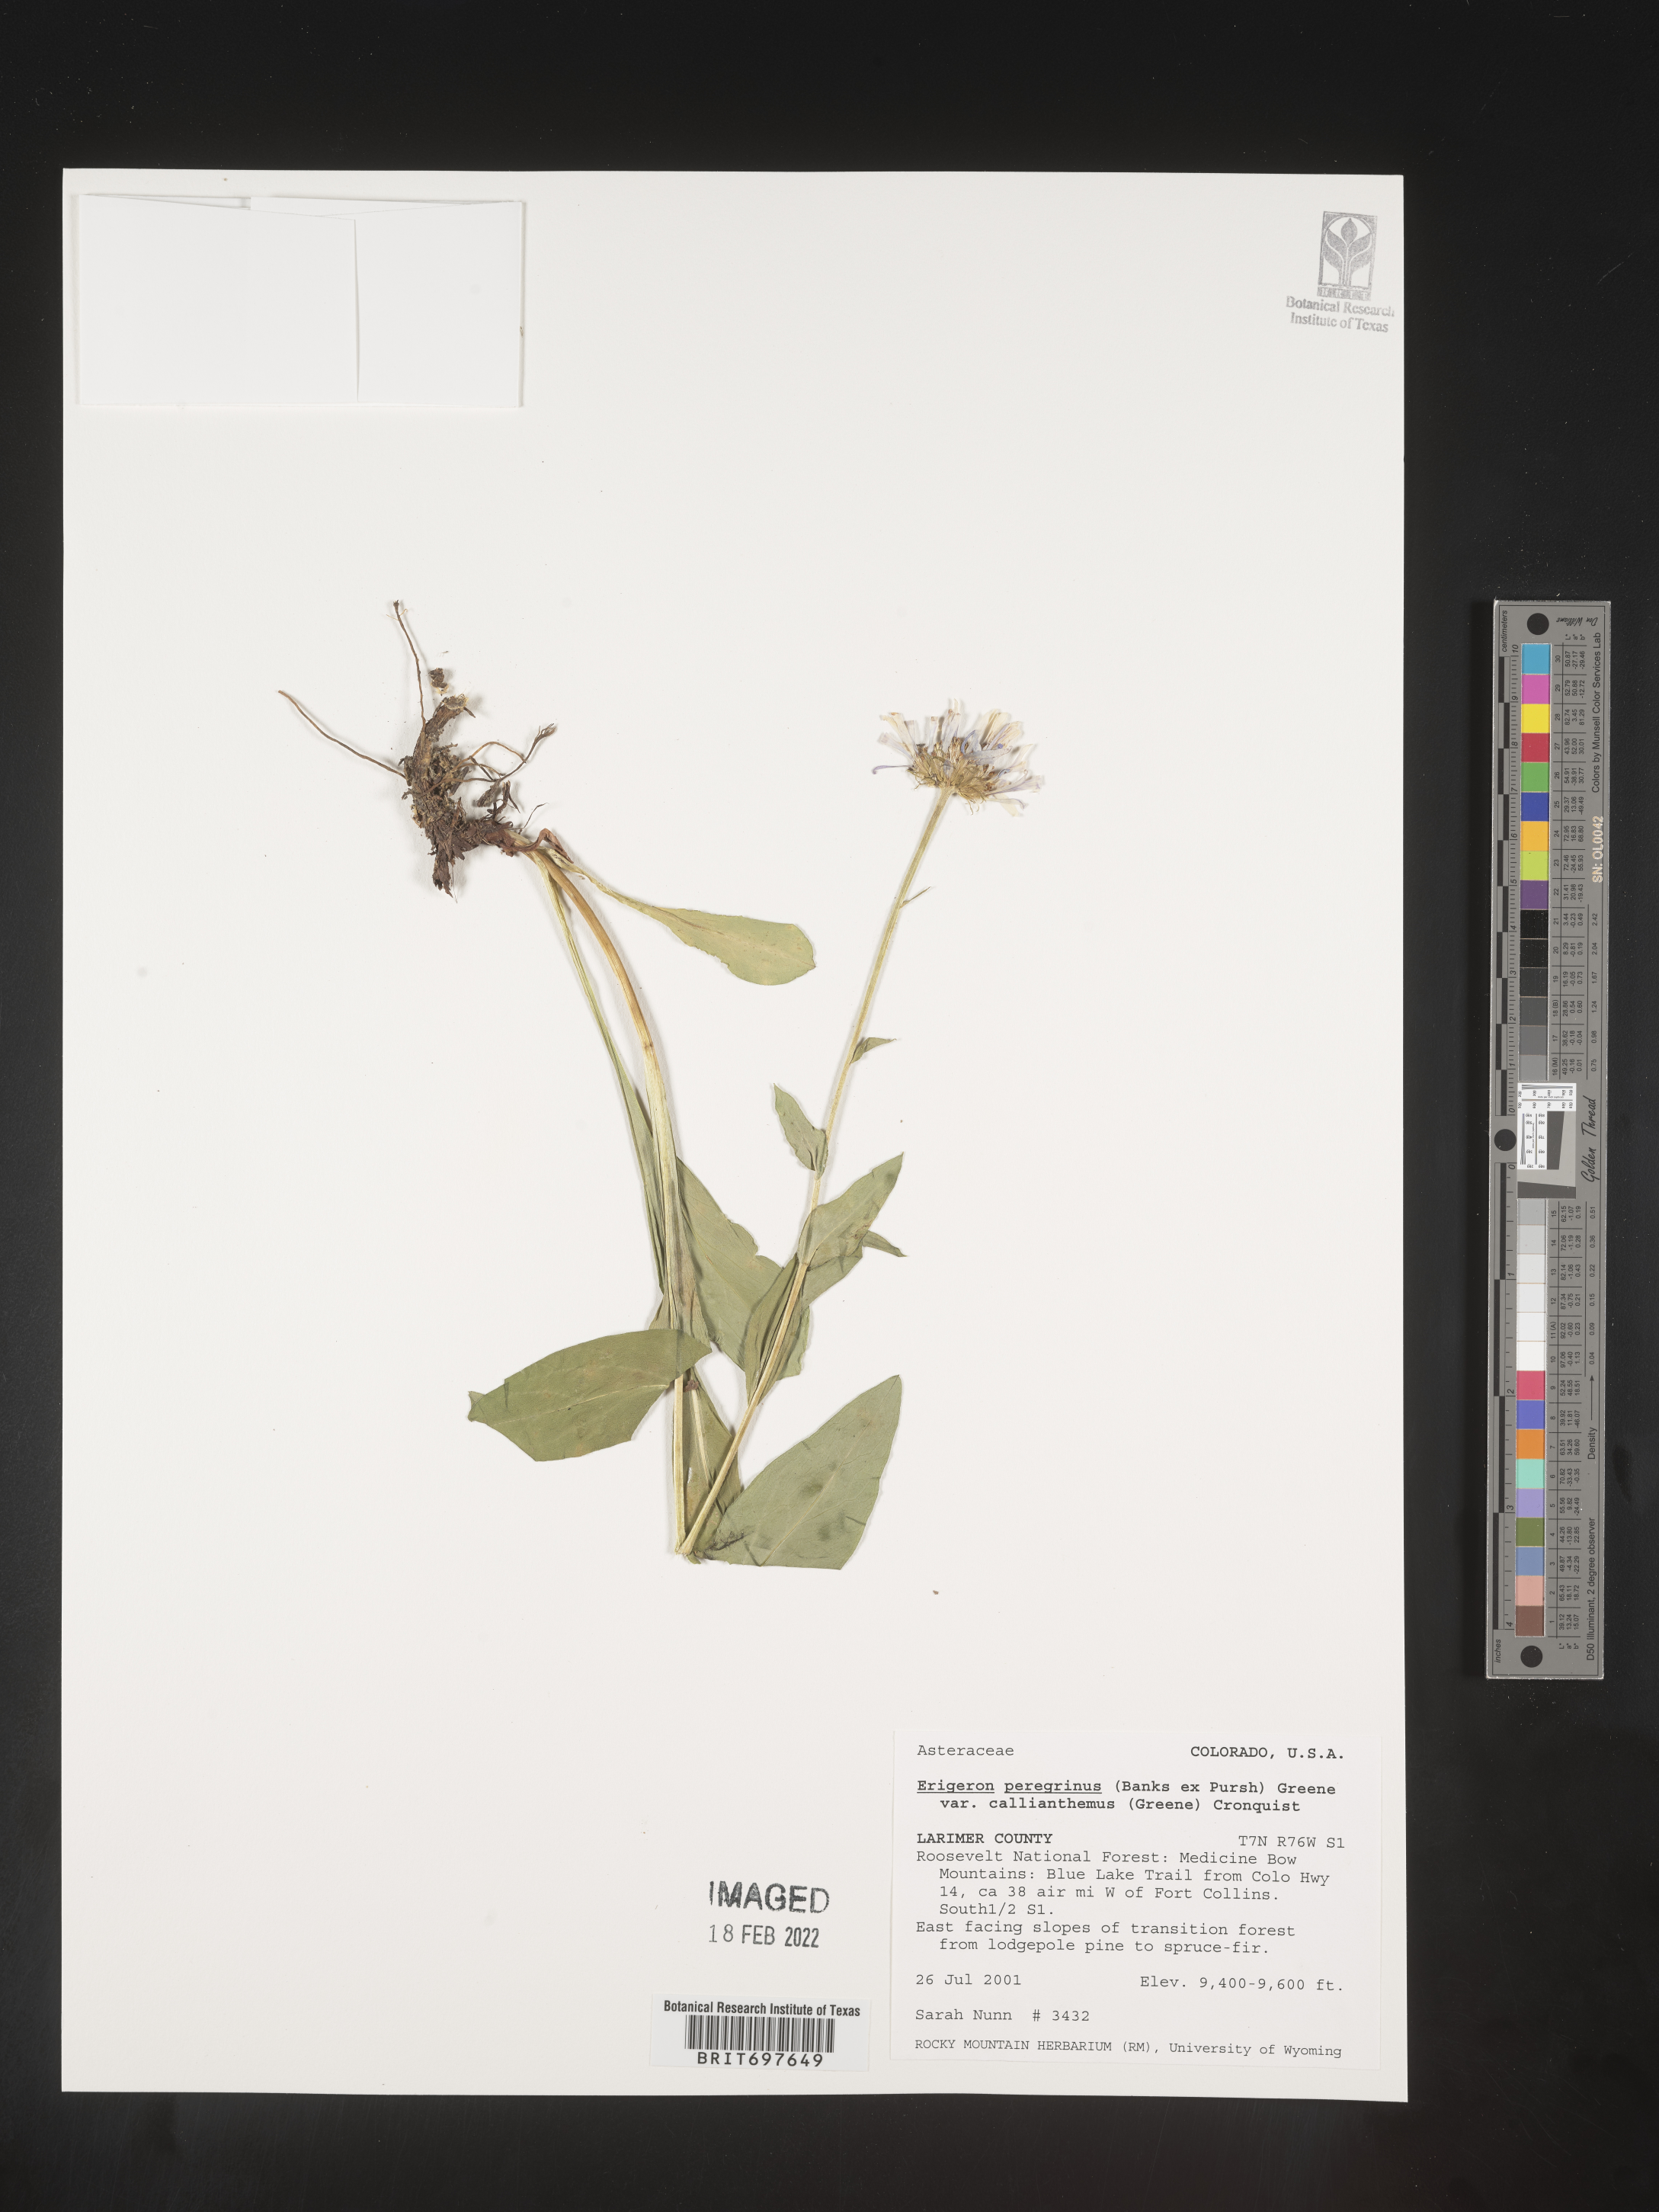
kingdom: Plantae
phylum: Tracheophyta
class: Magnoliopsida
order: Asterales
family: Asteraceae
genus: Erigeron
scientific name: Erigeron peregrinus
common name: Peregrine fleabane
